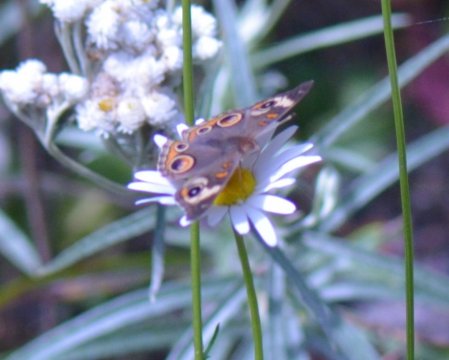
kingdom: Animalia
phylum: Arthropoda
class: Insecta
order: Lepidoptera
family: Nymphalidae
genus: Junonia
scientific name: Junonia coenia
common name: Common Buckeye
